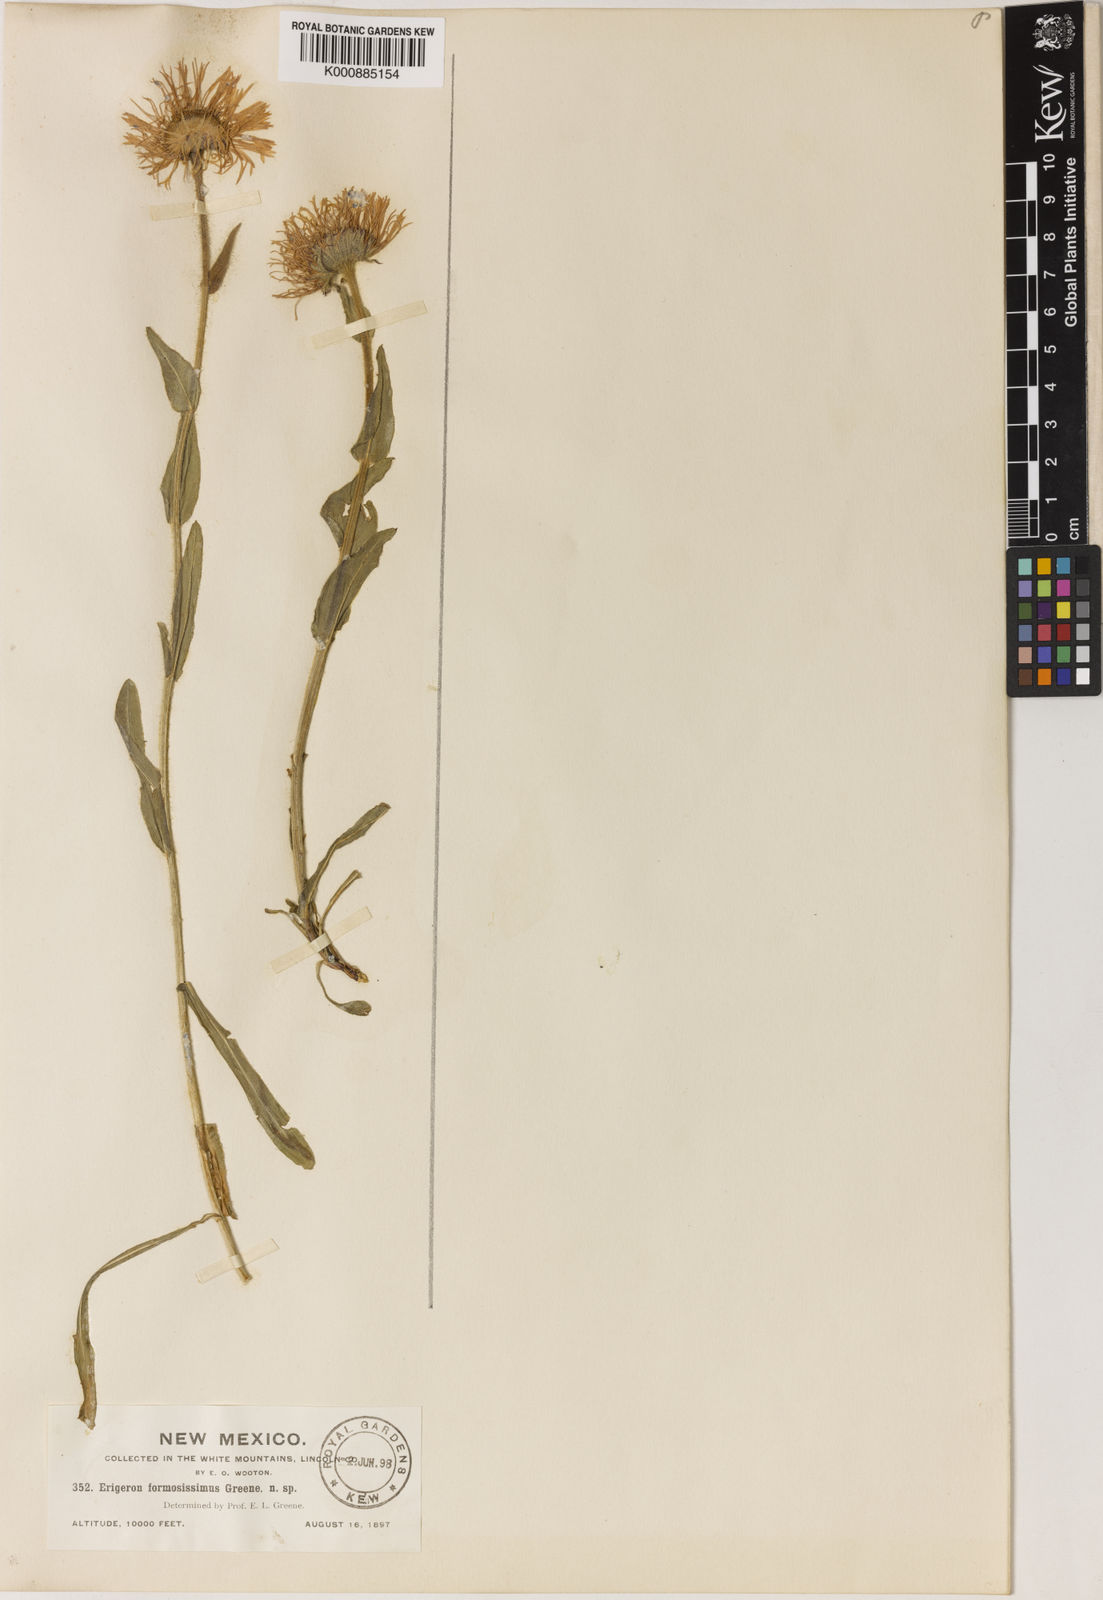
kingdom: Plantae
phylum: Tracheophyta
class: Magnoliopsida
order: Asterales
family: Asteraceae
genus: Erigeron
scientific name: Erigeron
